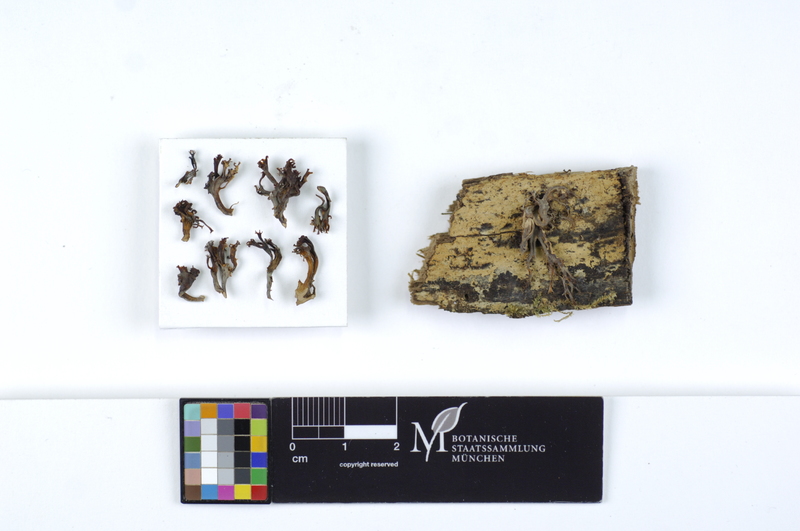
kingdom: Fungi
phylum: Basidiomycota
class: Agaricomycetes
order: Russulales
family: Auriscalpiaceae
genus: Artomyces
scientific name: Artomyces pyxidatus
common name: Crown-tipped coral fungus
